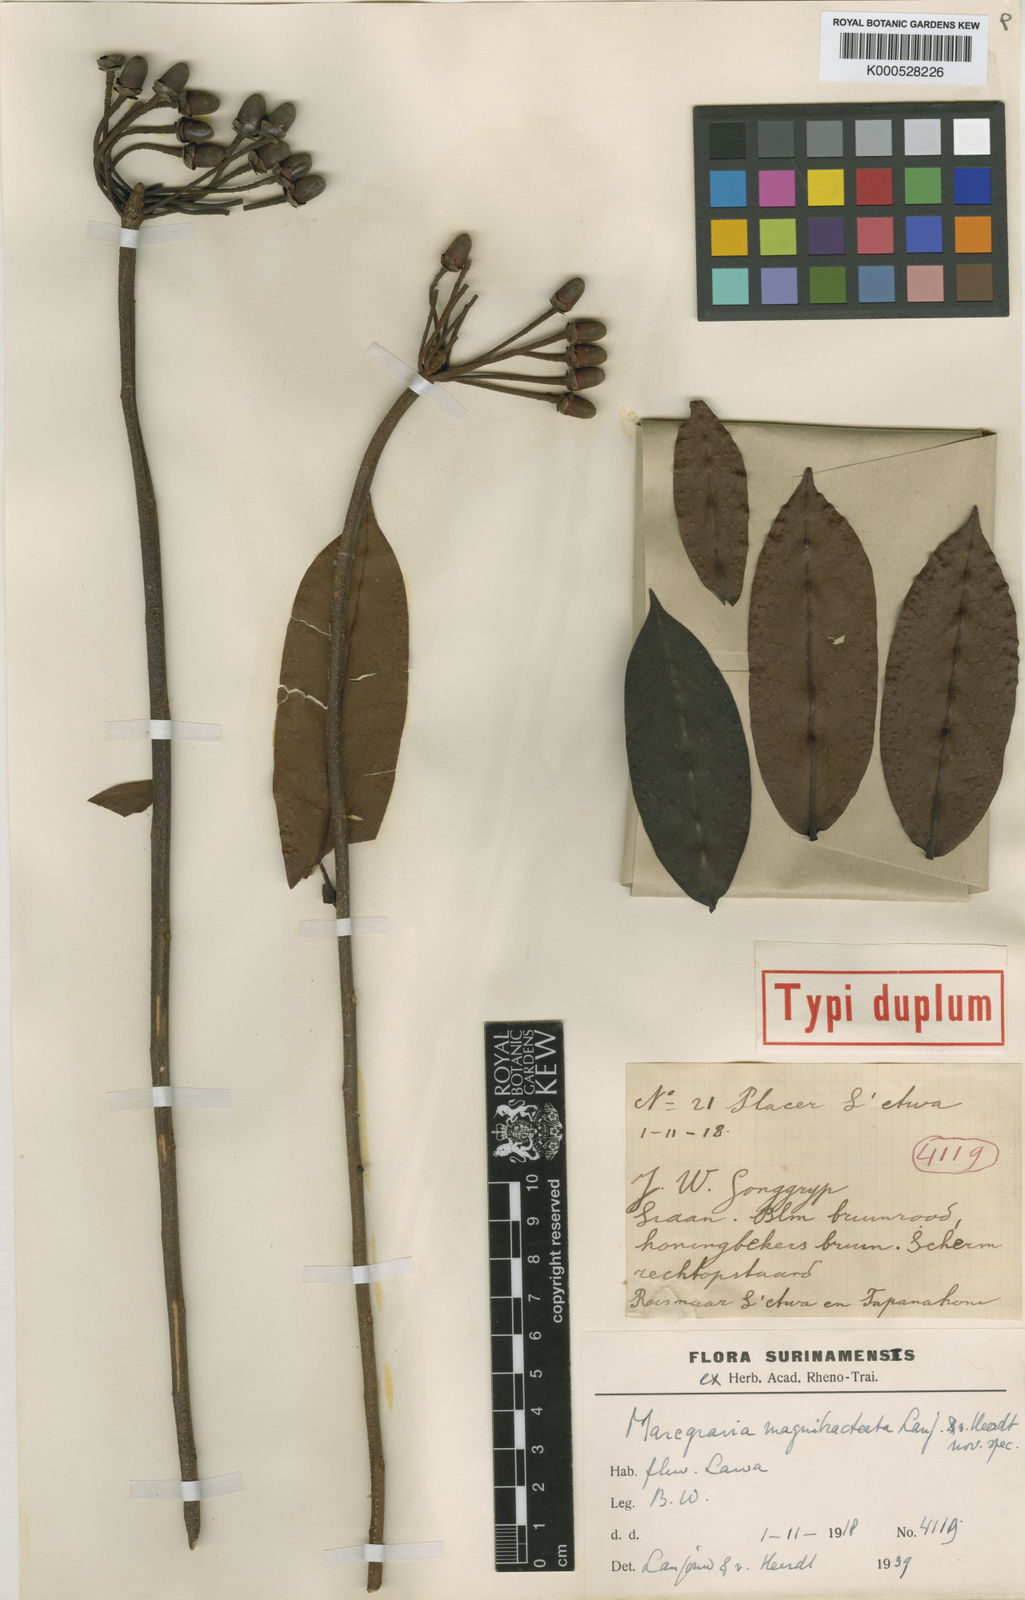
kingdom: Plantae
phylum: Tracheophyta
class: Magnoliopsida
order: Ericales
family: Marcgraviaceae
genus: Marcgravia
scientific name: Marcgravia magnibracteata
